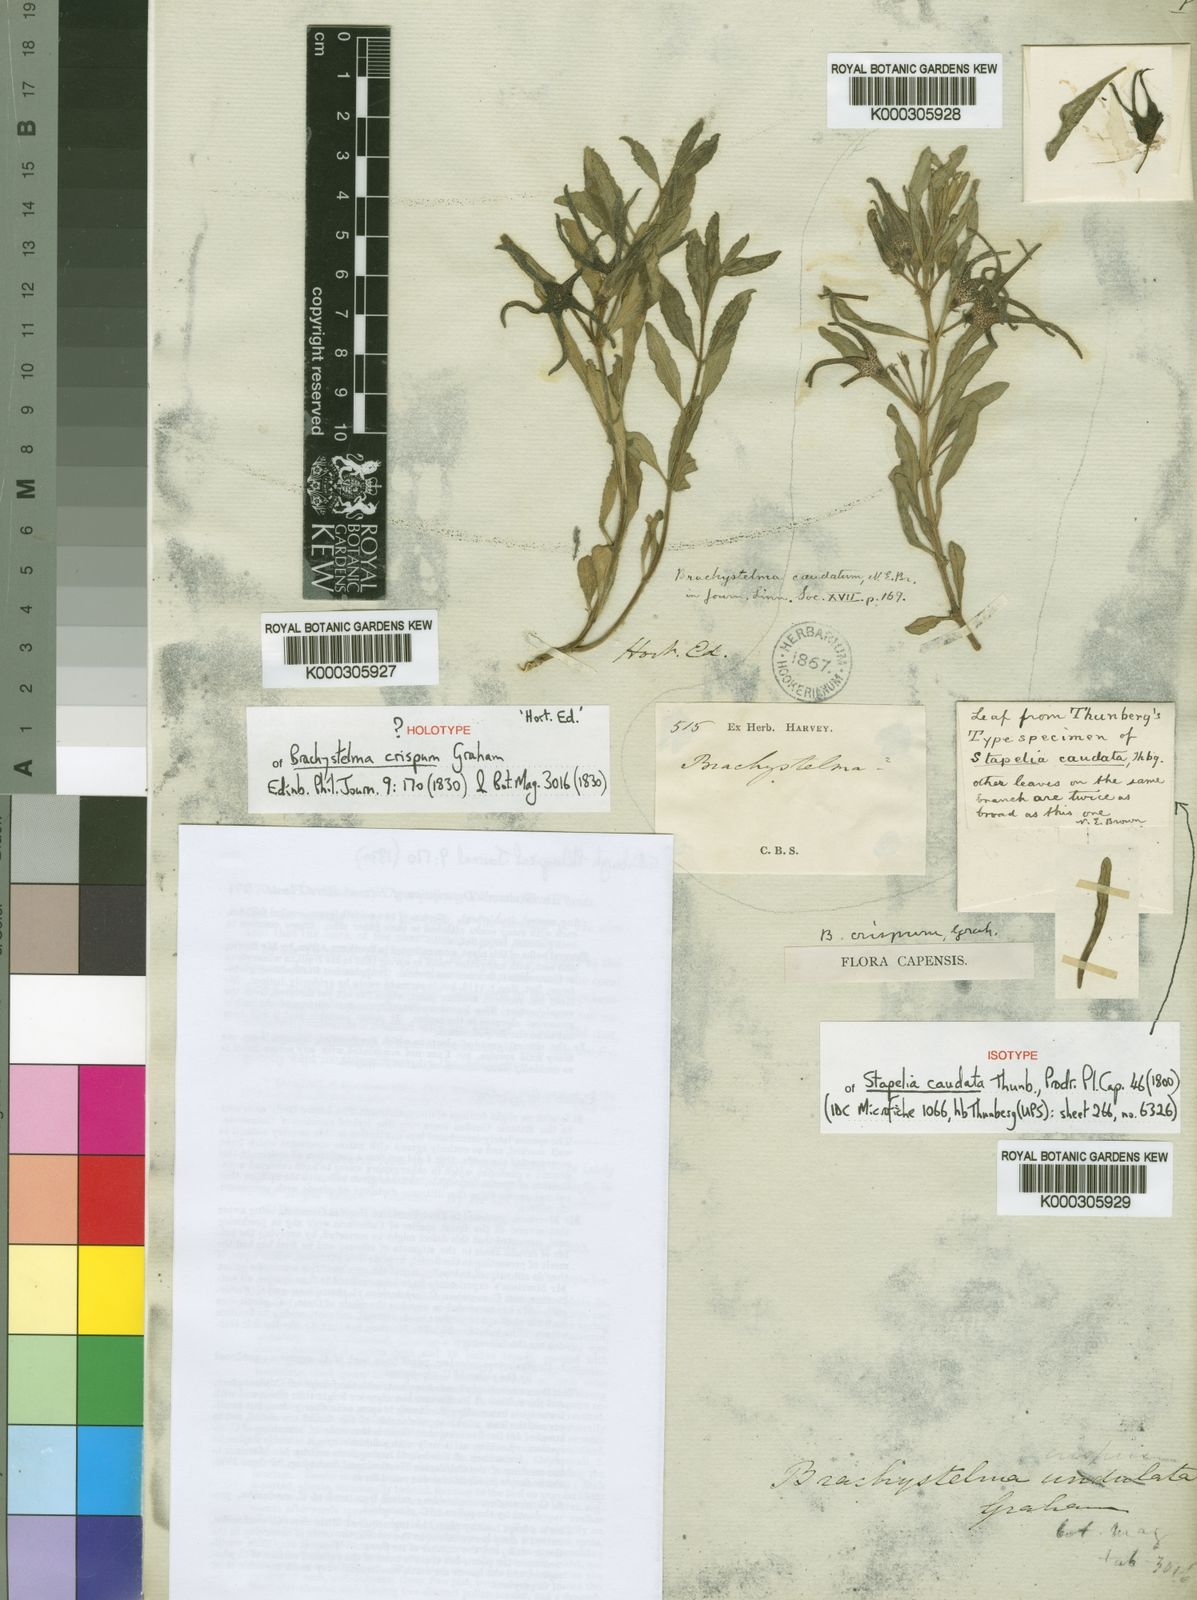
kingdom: Plantae
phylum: Tracheophyta
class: Magnoliopsida
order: Gentianales
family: Apocynaceae
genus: Ceropegia
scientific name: Ceropegia
